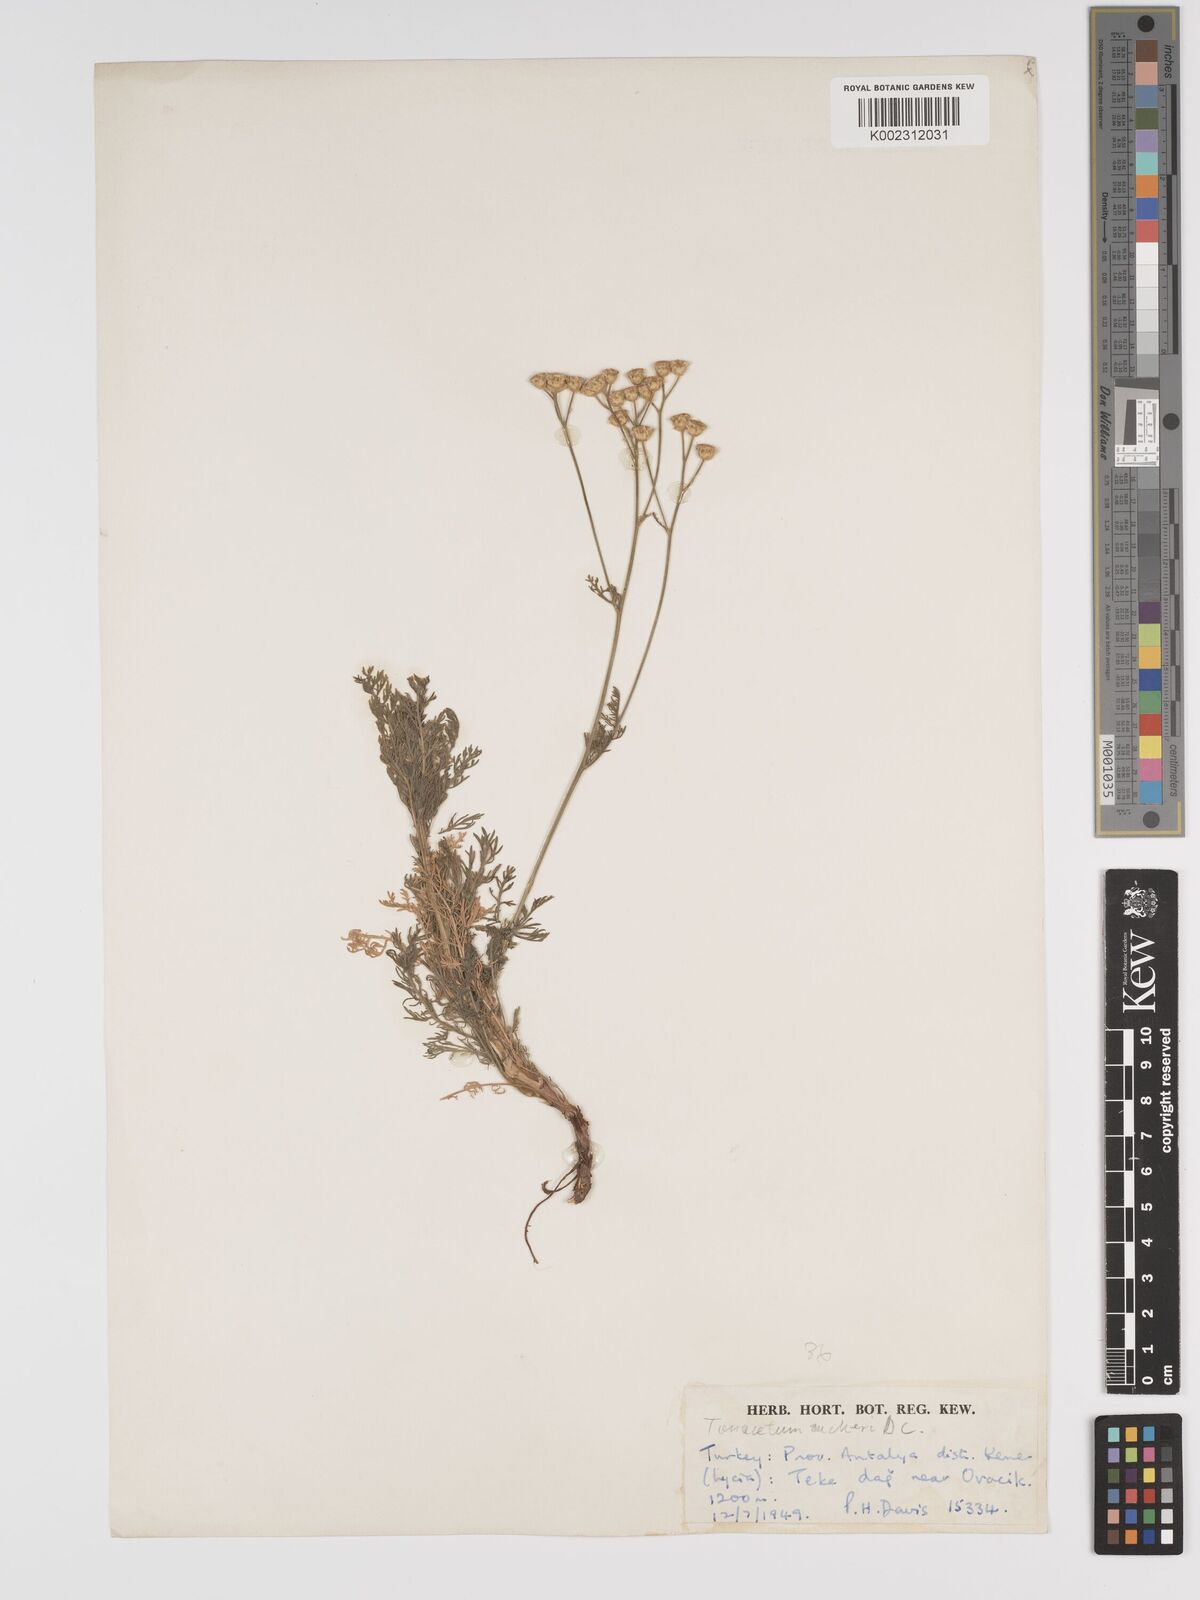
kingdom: Plantae
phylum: Tracheophyta
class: Magnoliopsida
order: Asterales
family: Asteraceae
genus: Tanacetum
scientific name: Tanacetum aucheri
